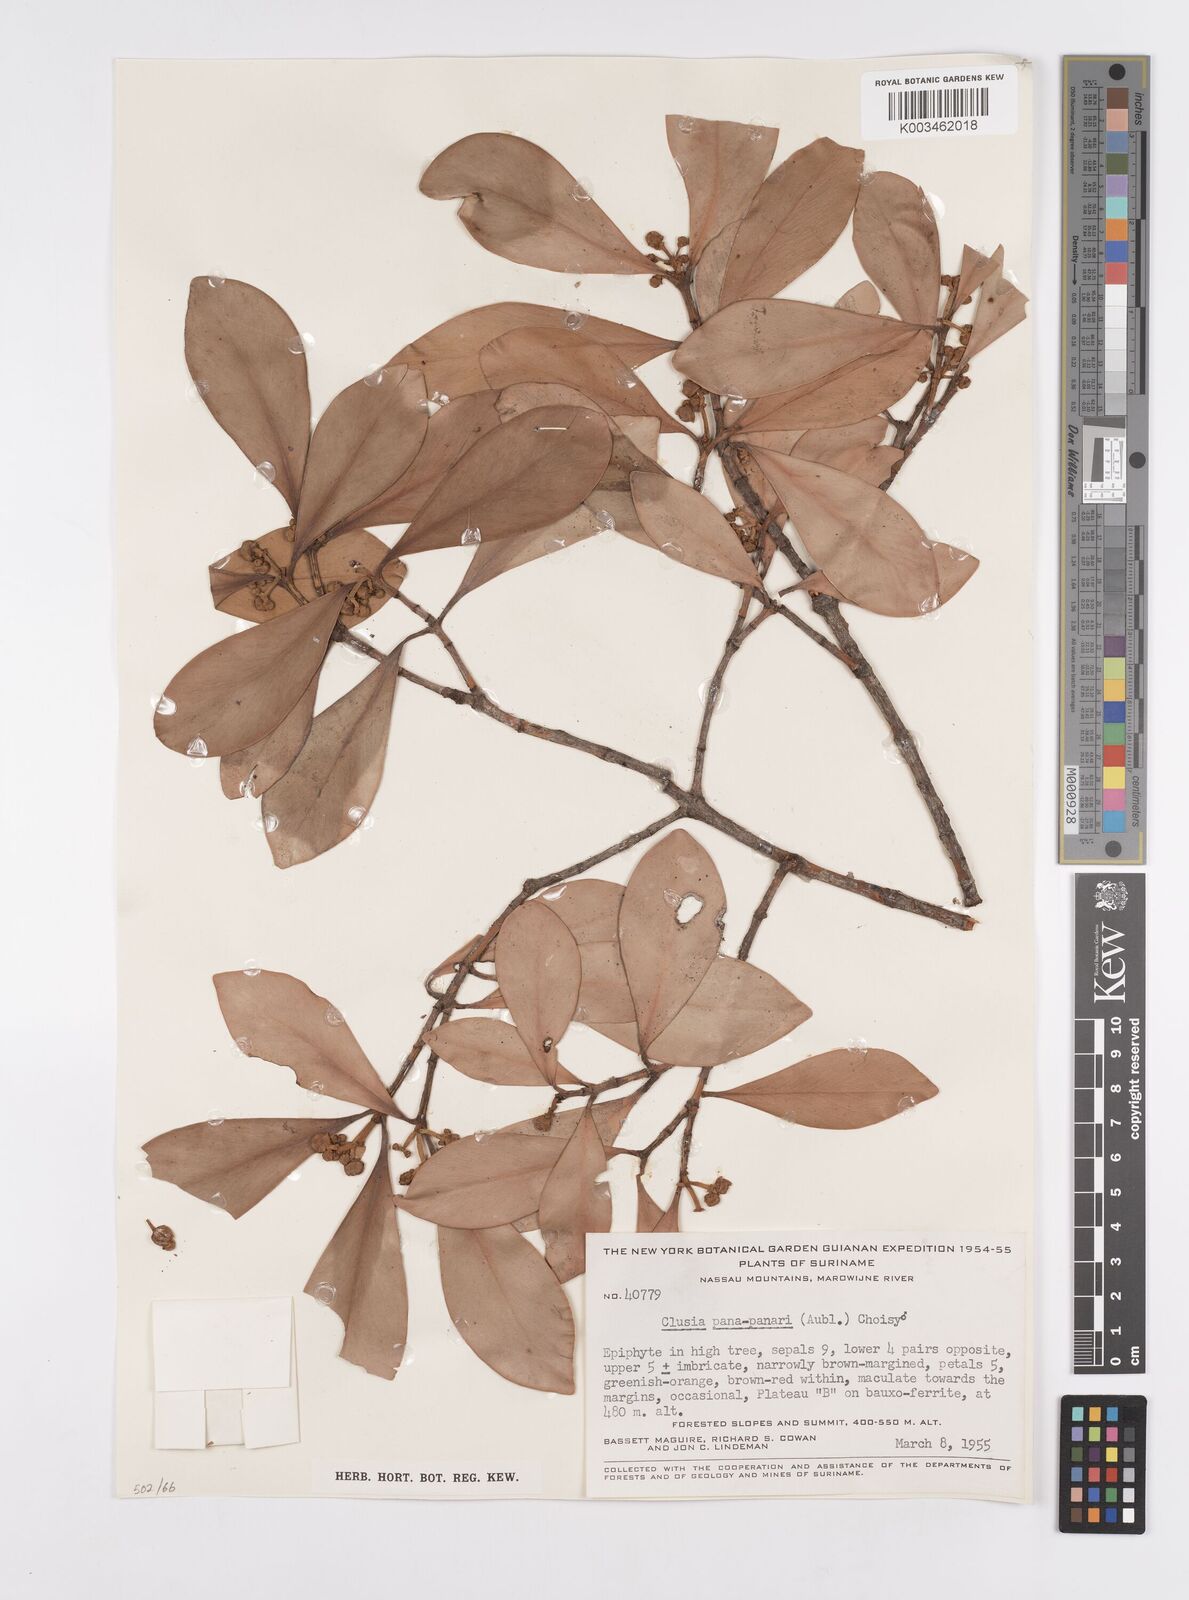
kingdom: Plantae
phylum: Tracheophyta
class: Magnoliopsida
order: Malpighiales
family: Clusiaceae
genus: Clusia
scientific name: Clusia panapanari
